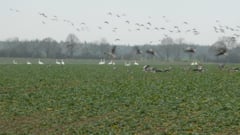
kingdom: Animalia
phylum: Chordata
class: Aves
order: Anseriformes
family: Anatidae
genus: Anser
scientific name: Anser anser
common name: Greylag goose
